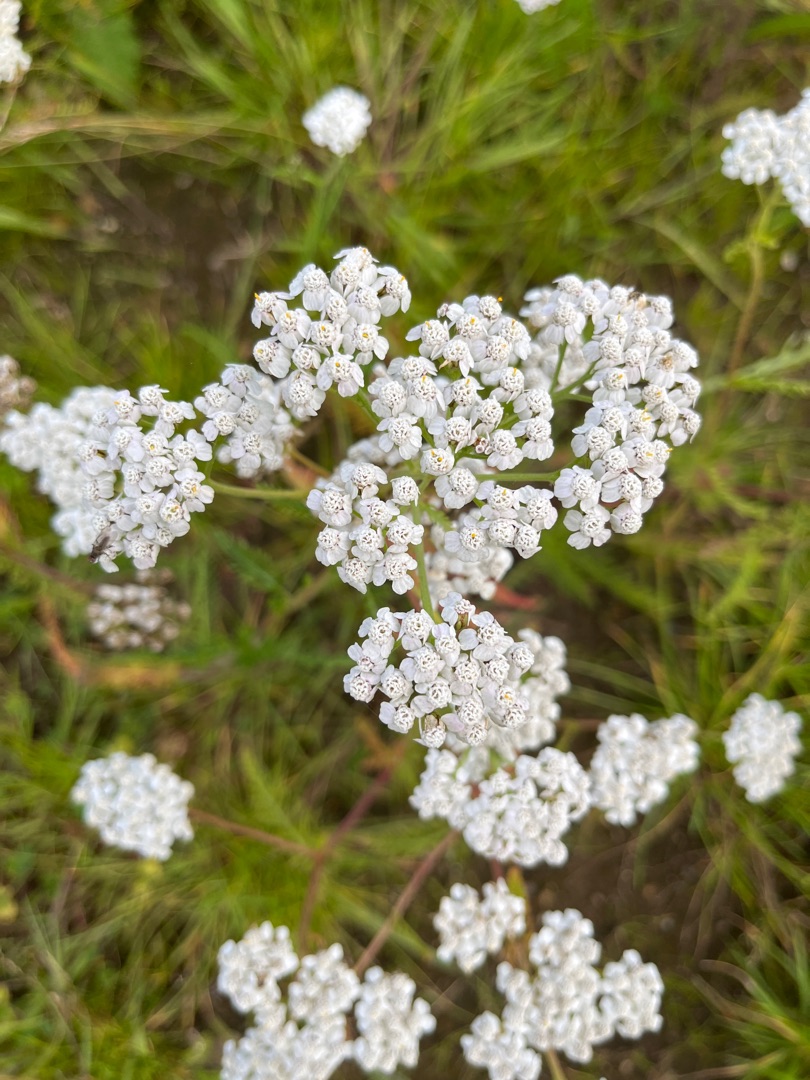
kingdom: Plantae
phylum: Tracheophyta
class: Magnoliopsida
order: Asterales
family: Asteraceae
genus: Achillea
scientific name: Achillea millefolium
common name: Almindelig røllike
